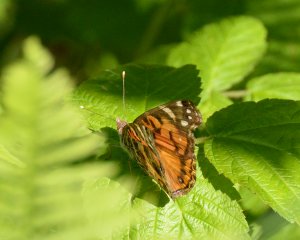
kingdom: Animalia
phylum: Arthropoda
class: Insecta
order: Lepidoptera
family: Nymphalidae
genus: Vanessa
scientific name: Vanessa virginiensis
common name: American Lady
